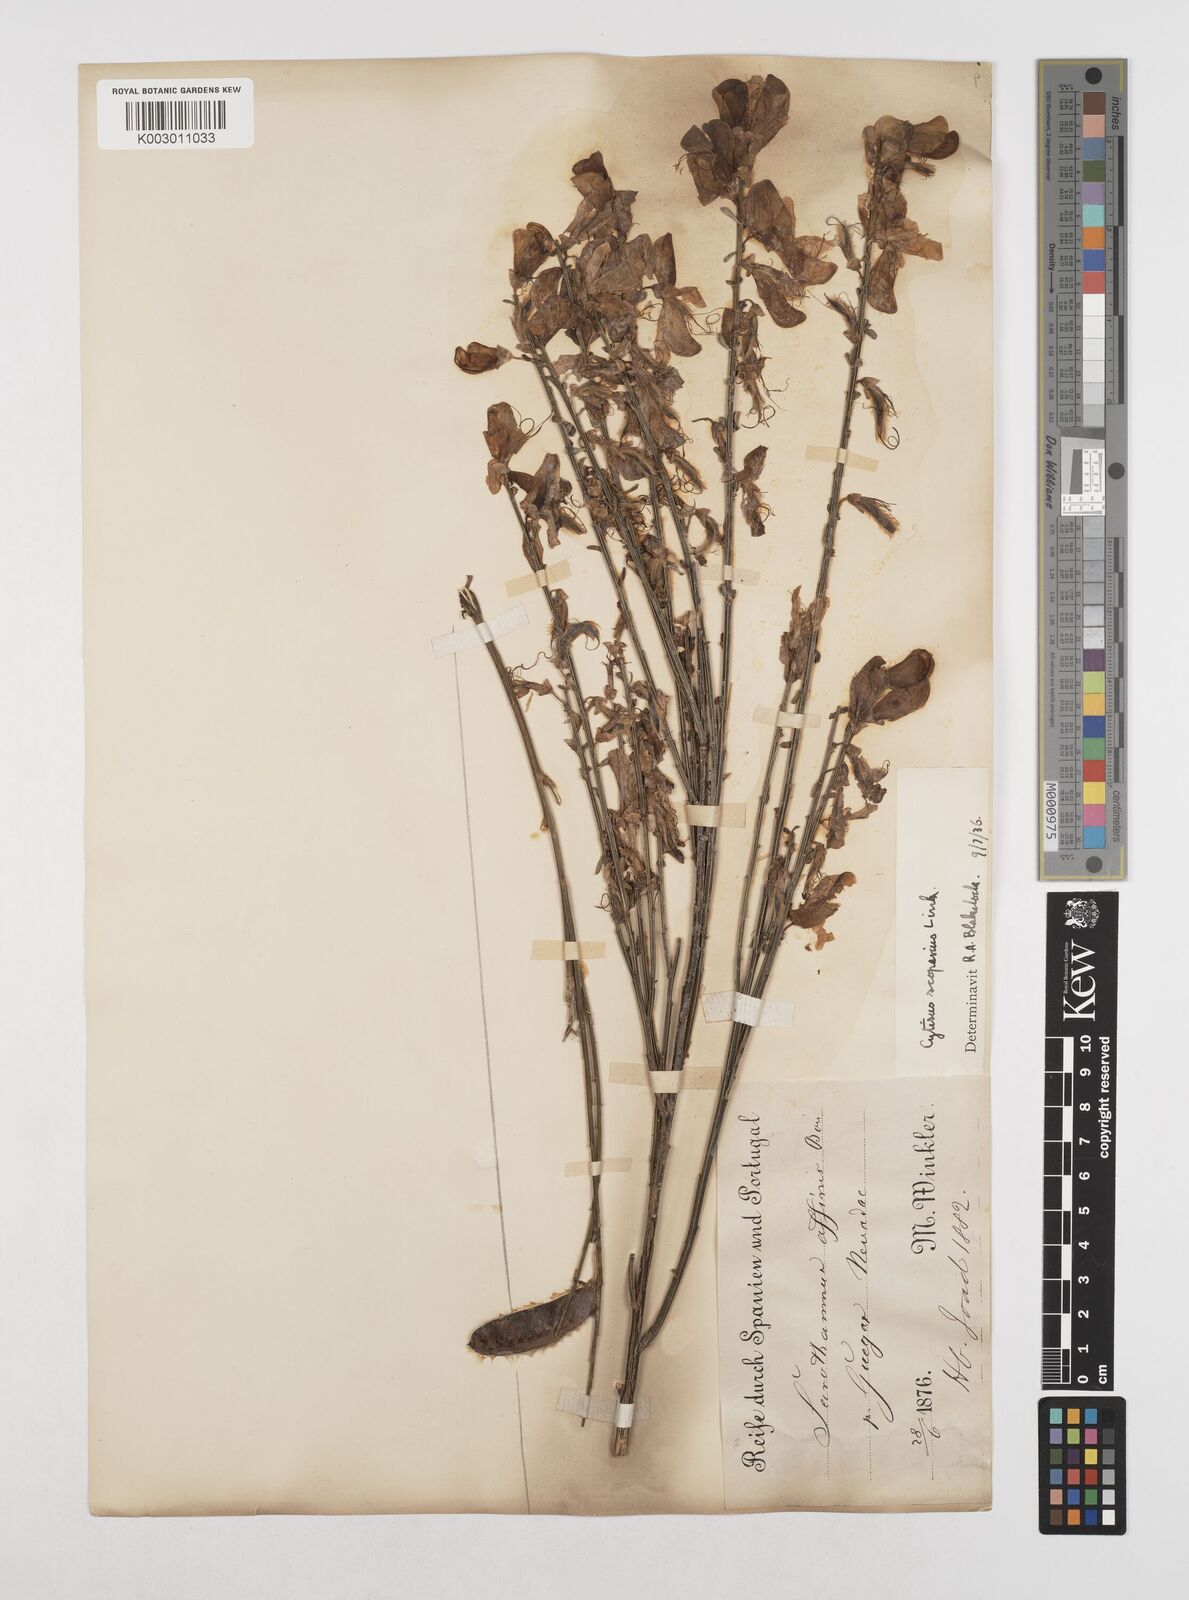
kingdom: Plantae
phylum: Tracheophyta
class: Magnoliopsida
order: Fabales
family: Fabaceae
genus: Cytisus
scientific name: Cytisus scoparius
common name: Scotch broom
